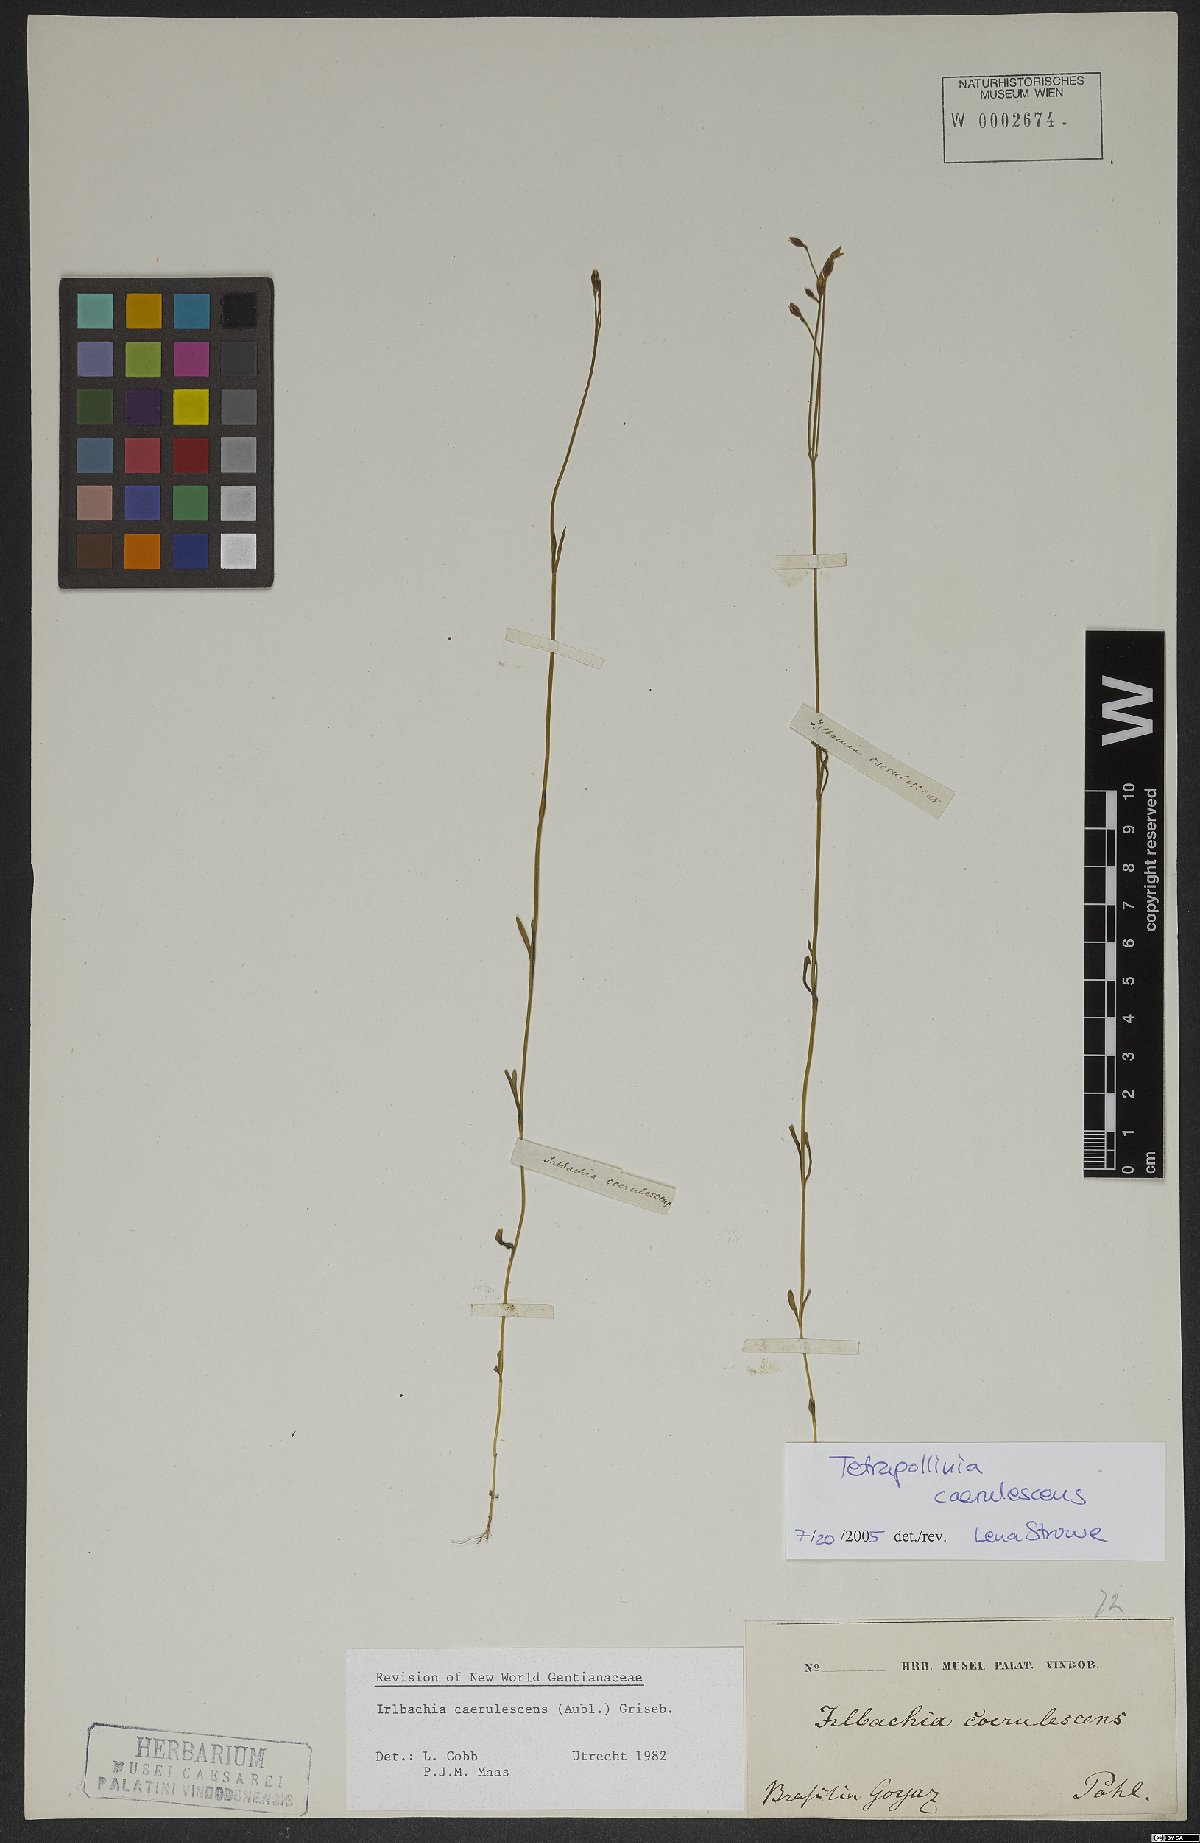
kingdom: Plantae
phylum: Tracheophyta
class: Magnoliopsida
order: Gentianales
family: Gentianaceae
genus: Tetrapollinia
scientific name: Tetrapollinia caerulescens
